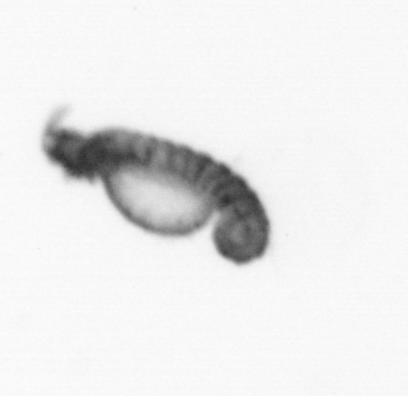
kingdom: Animalia
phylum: Annelida
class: Polychaeta
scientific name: Polychaeta
